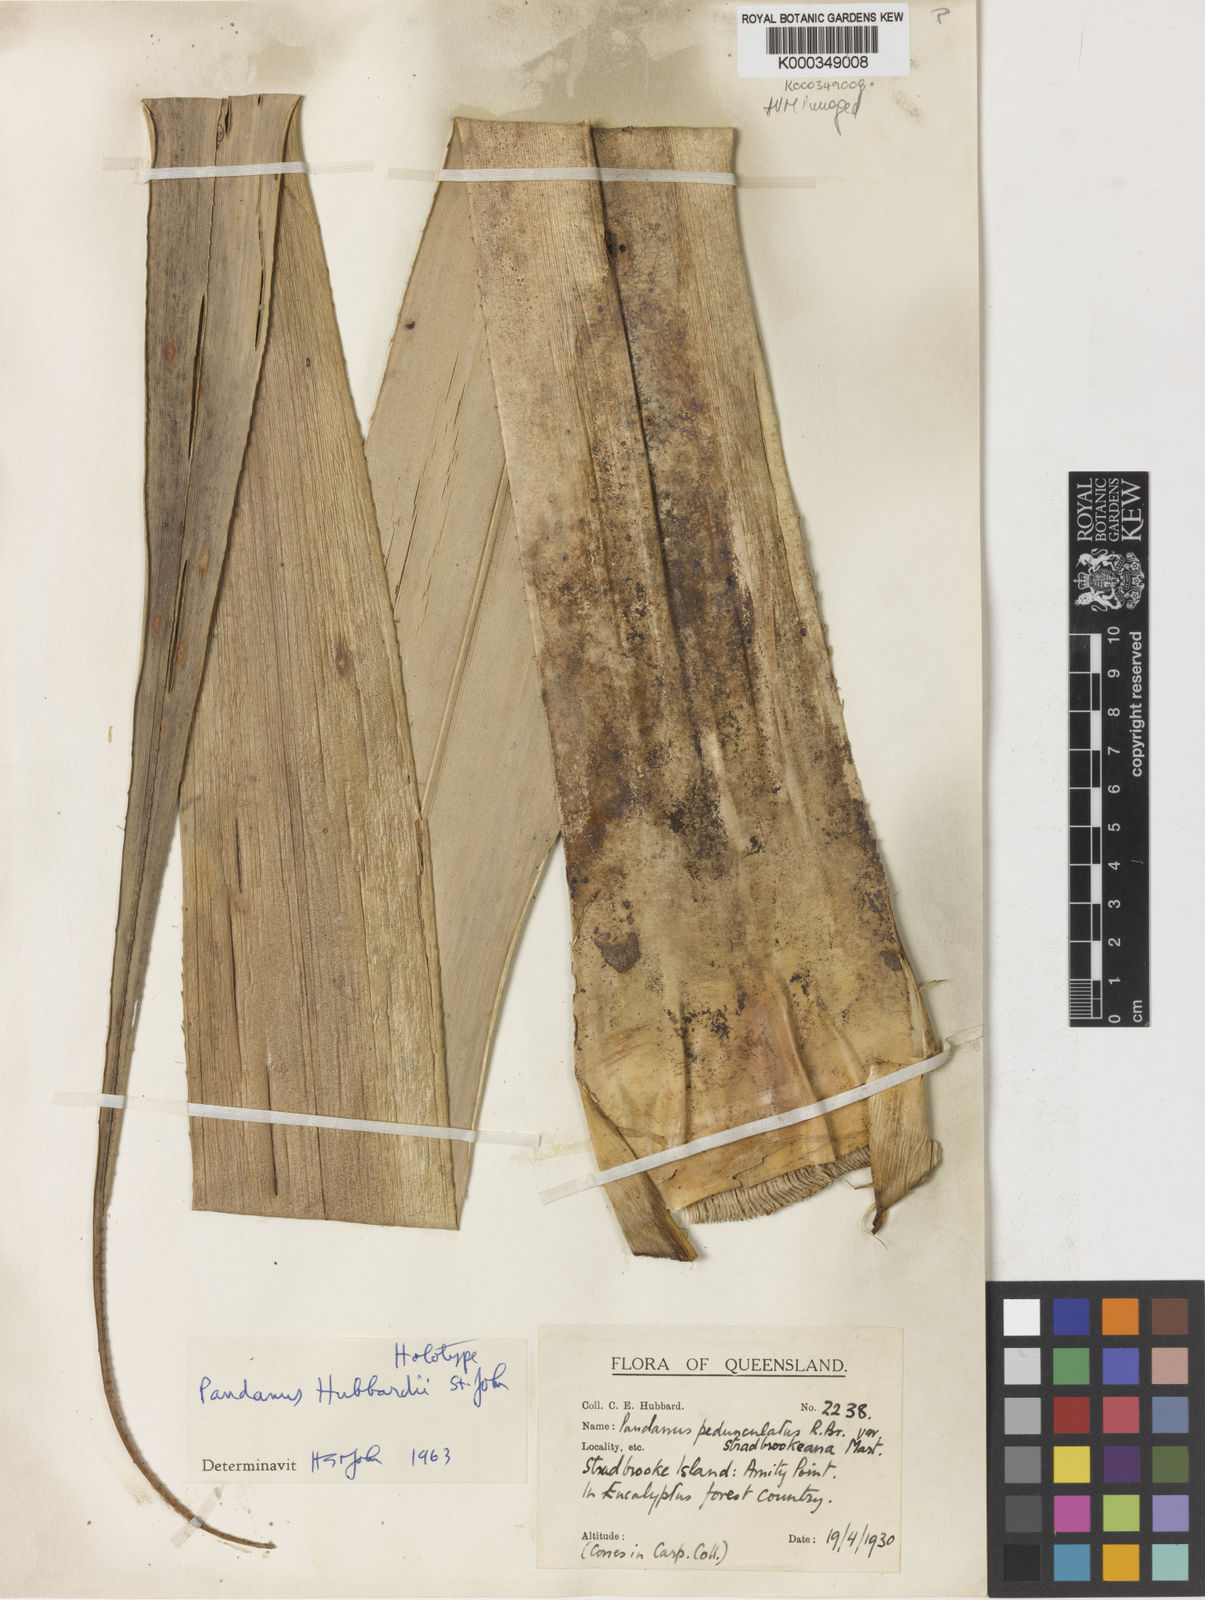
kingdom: Plantae
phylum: Tracheophyta
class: Liliopsida
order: Pandanales
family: Pandanaceae
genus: Pandanus
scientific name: Pandanus tectorius
